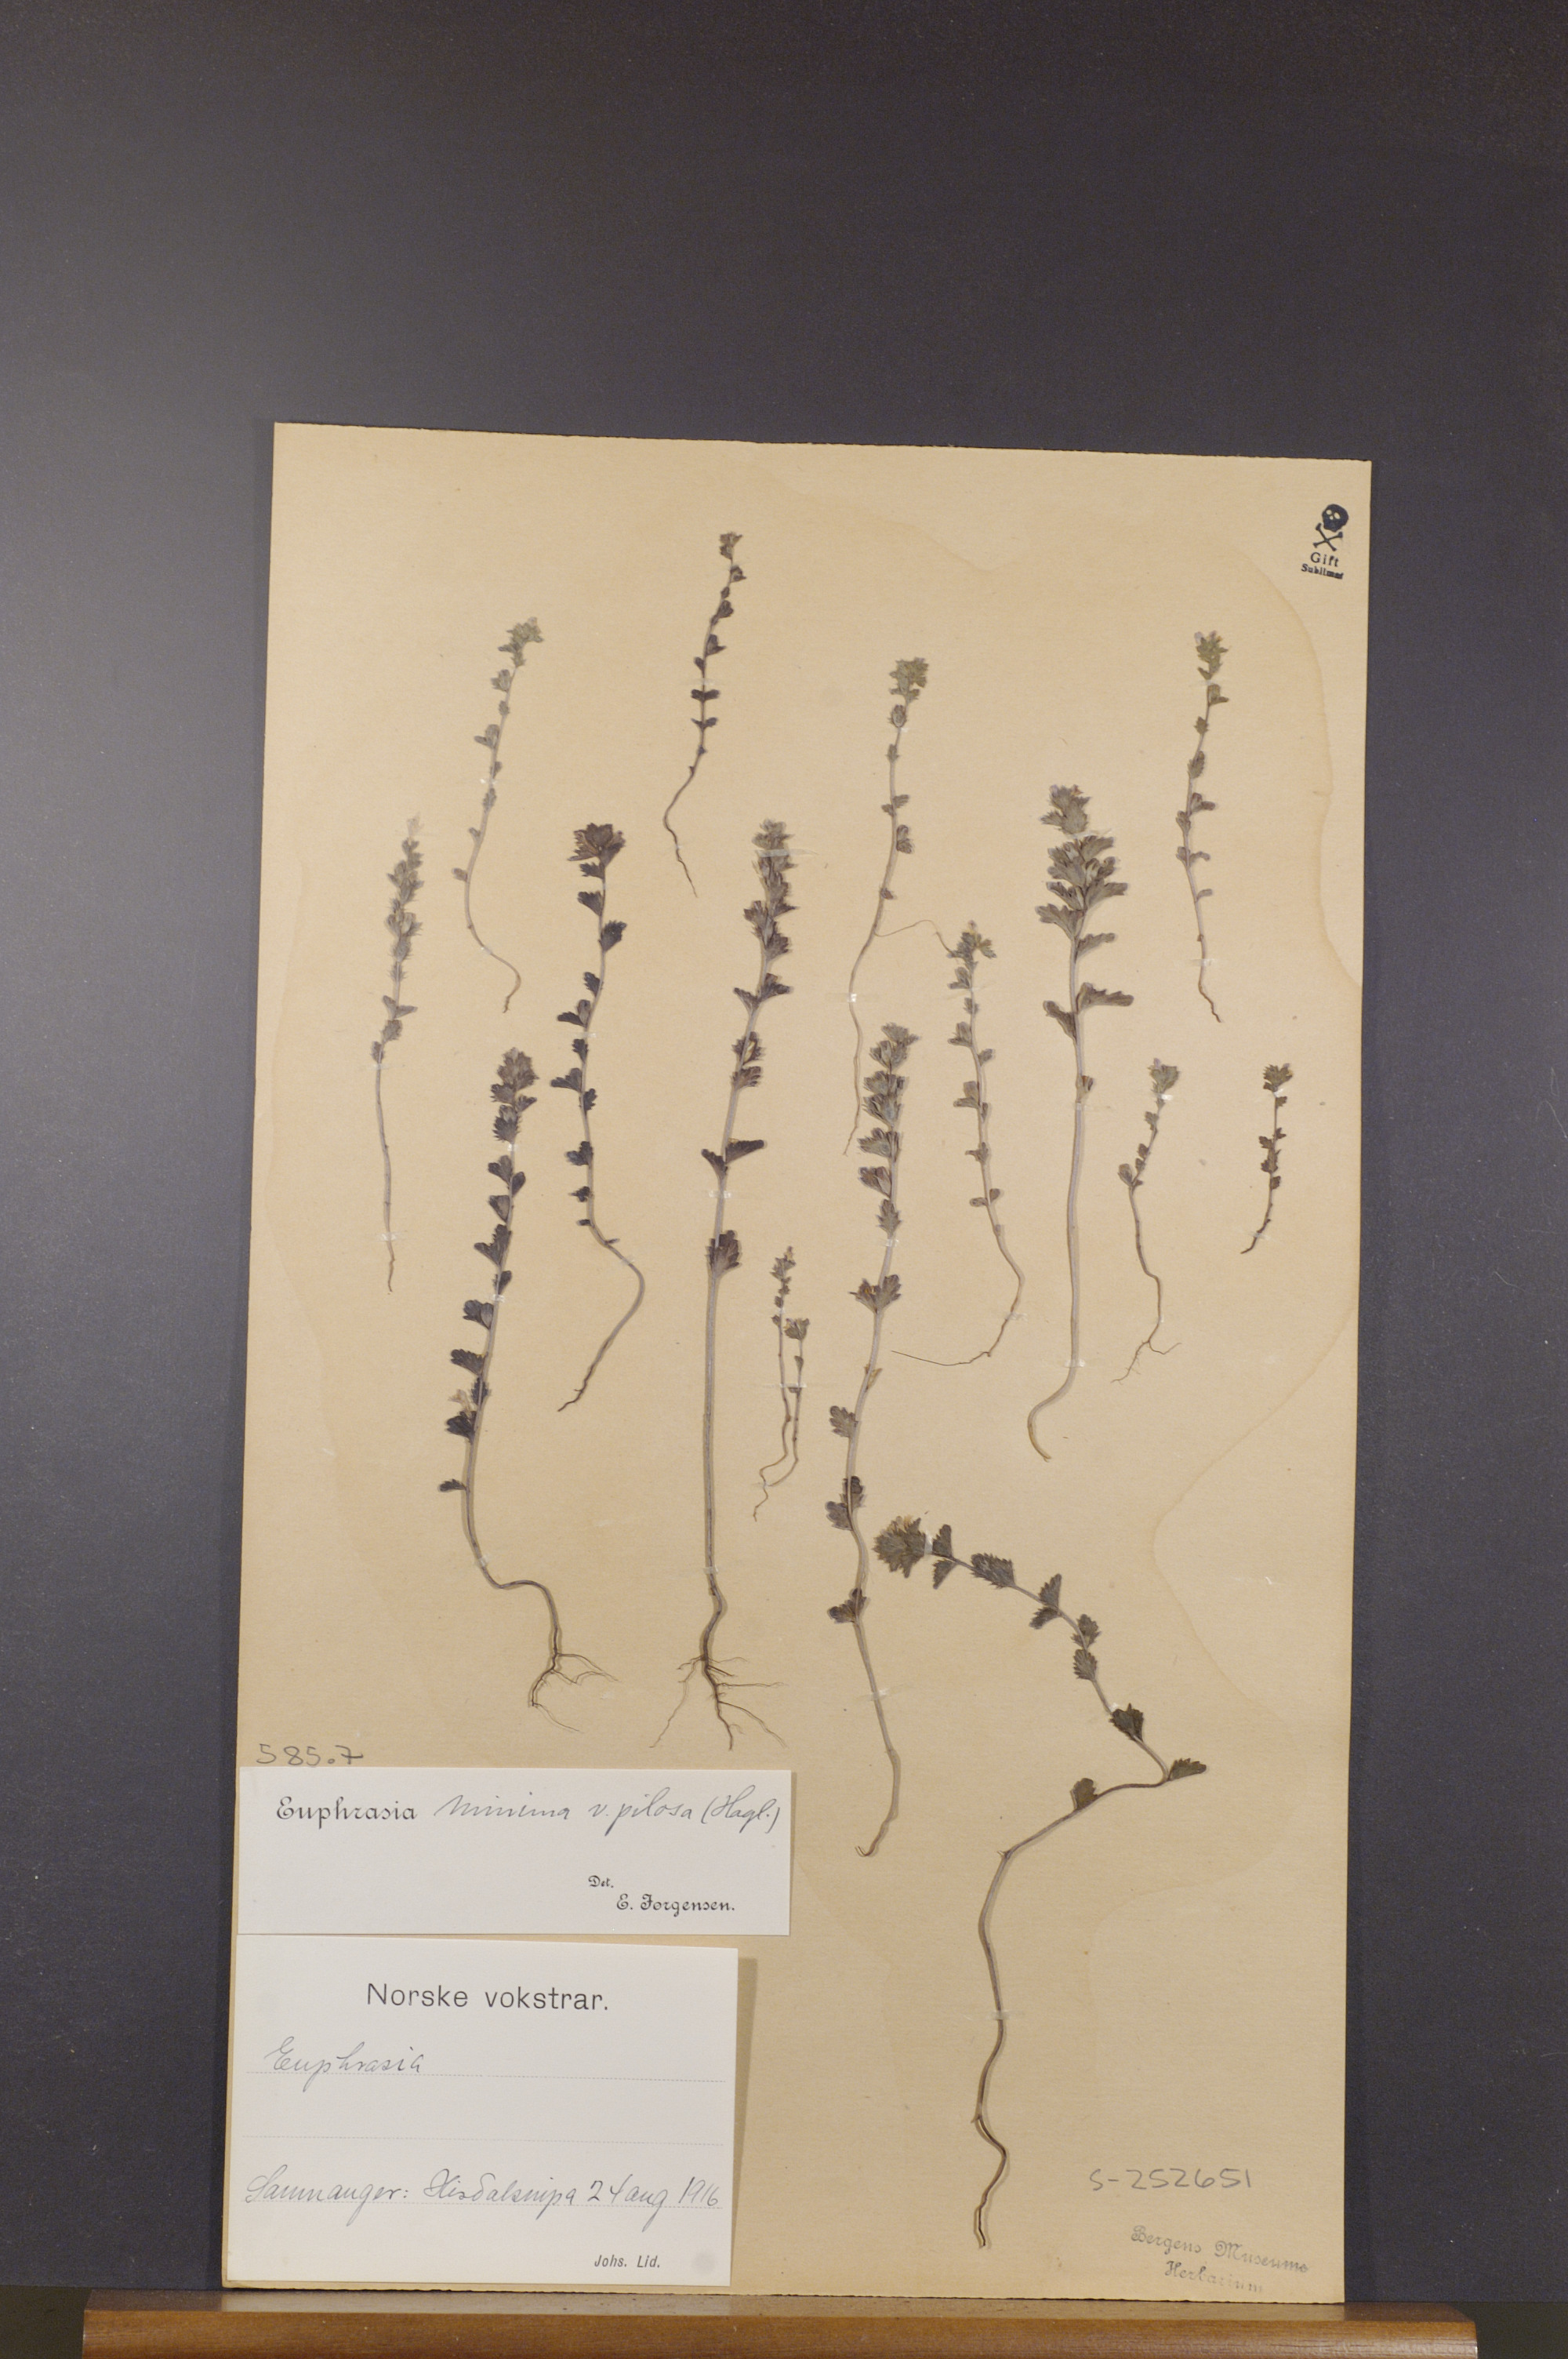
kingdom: Plantae
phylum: Tracheophyta
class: Magnoliopsida
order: Lamiales
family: Orobanchaceae
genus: Euphrasia
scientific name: Euphrasia minima
